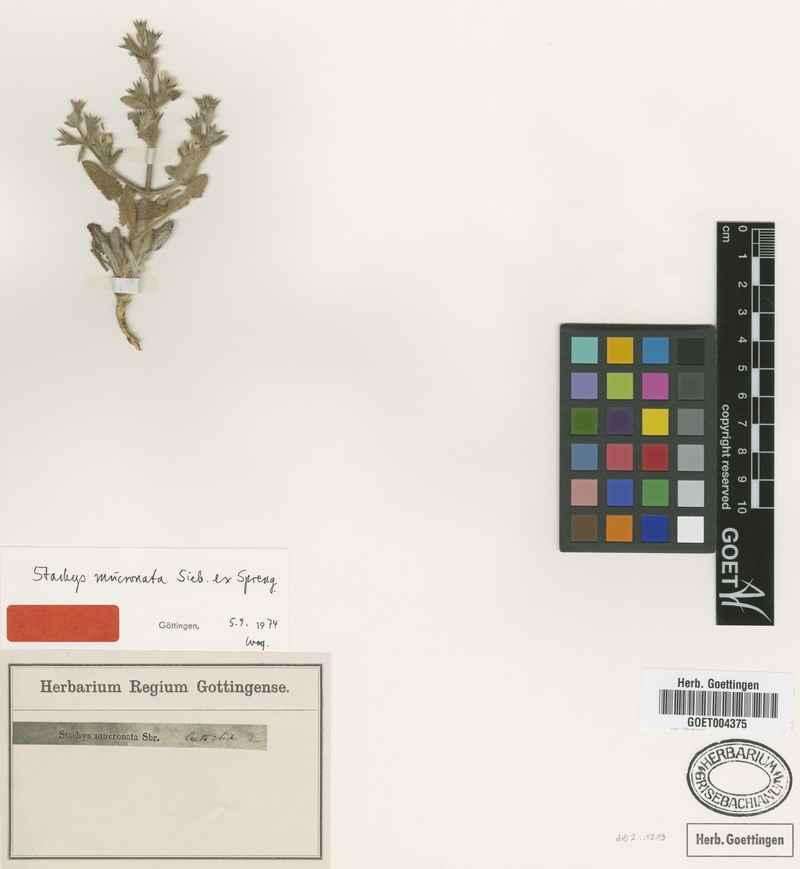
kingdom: Plantae
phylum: Tracheophyta
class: Magnoliopsida
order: Lamiales
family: Lamiaceae
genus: Stachys
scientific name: Stachys mucronata
